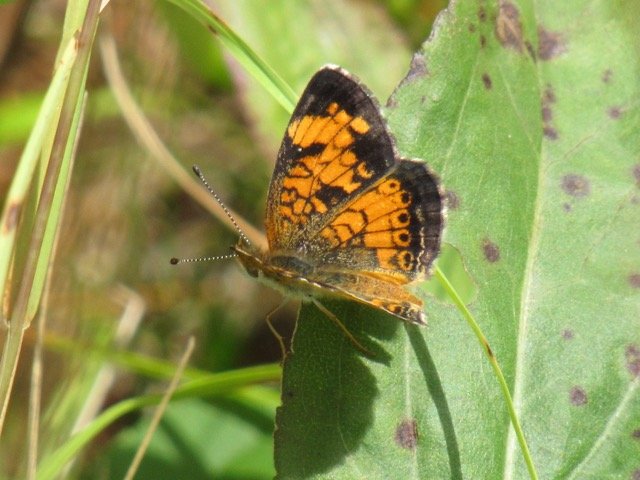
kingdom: Animalia
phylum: Arthropoda
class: Insecta
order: Lepidoptera
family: Nymphalidae
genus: Phyciodes
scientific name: Phyciodes tharos
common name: Pearl Crescent
